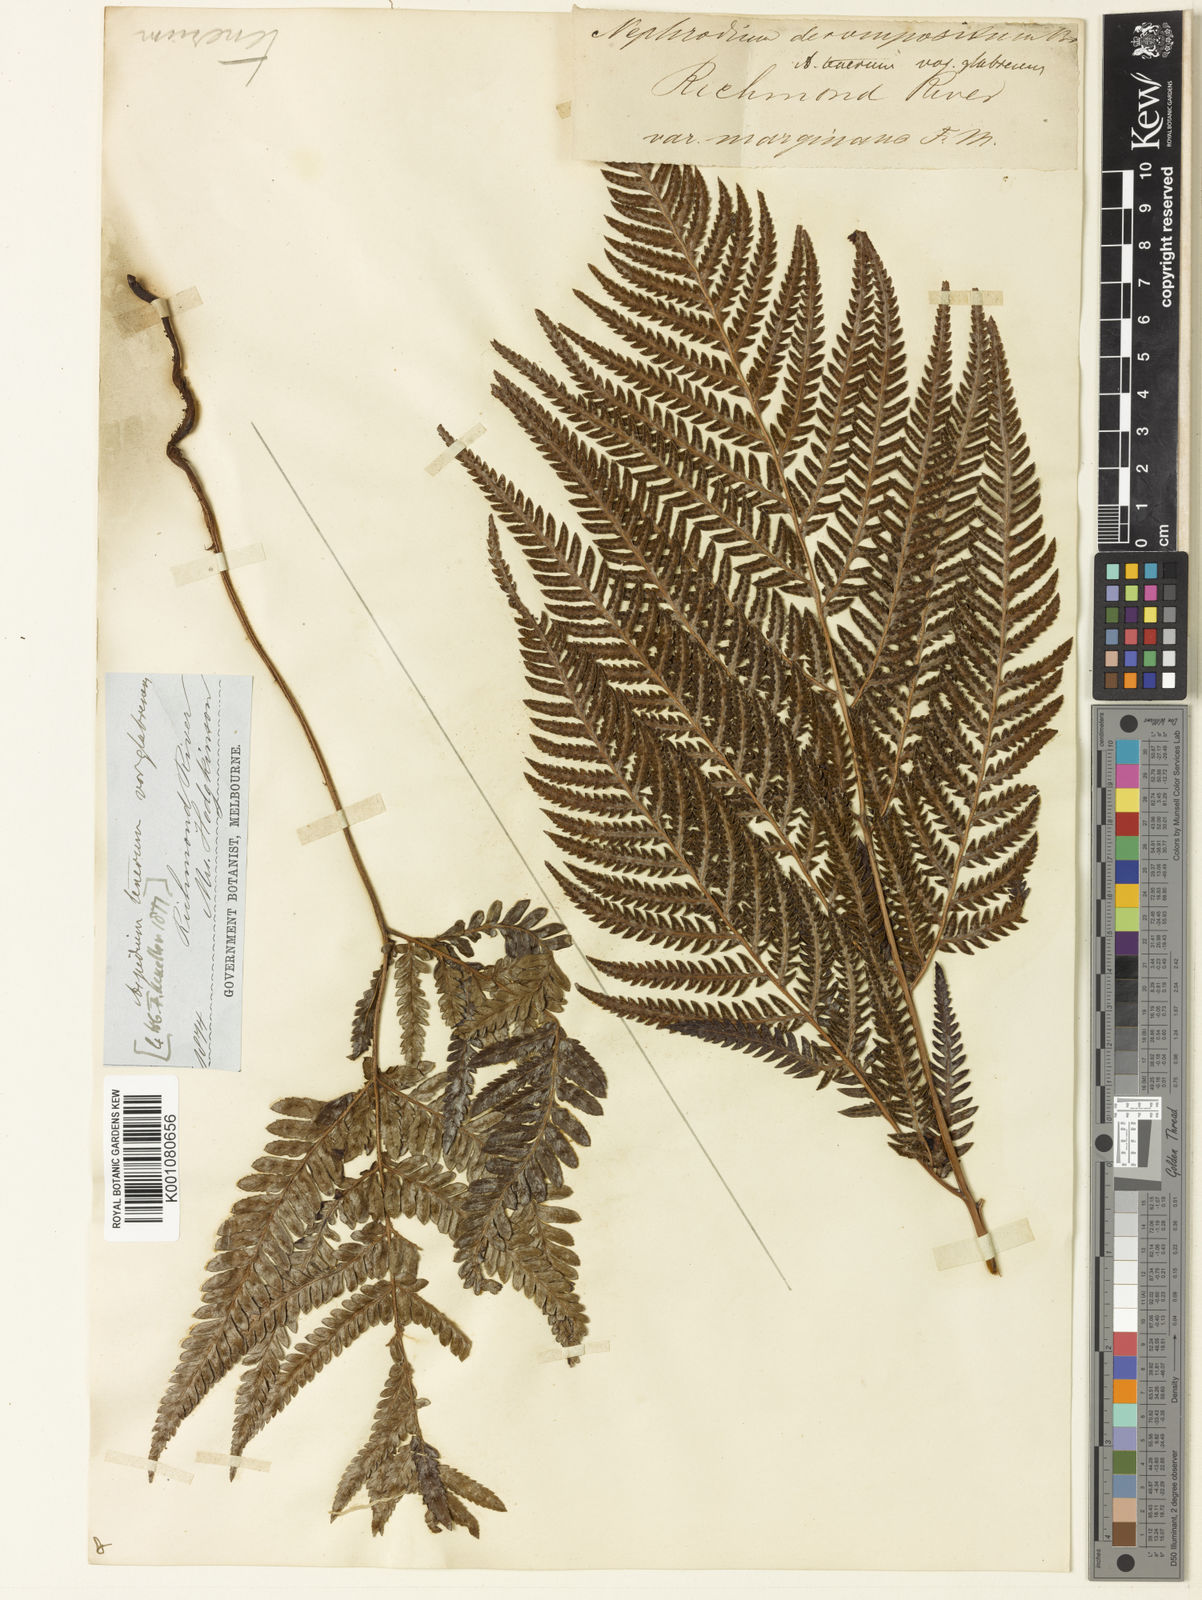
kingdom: Plantae
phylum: Tracheophyta
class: Polypodiopsida
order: Polypodiales
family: Dryopteridaceae
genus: Lastreopsis
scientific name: Lastreopsis decomposita
